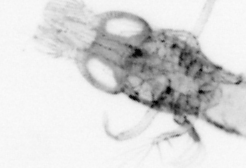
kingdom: Animalia
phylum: Arthropoda
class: Malacostraca
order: Decapoda
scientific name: Decapoda
